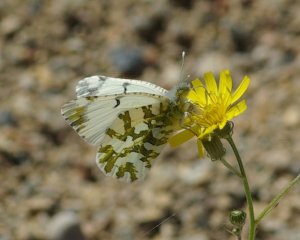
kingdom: Animalia
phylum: Arthropoda
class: Insecta
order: Lepidoptera
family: Pieridae
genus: Euchloe
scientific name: Euchloe ausonides
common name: Large Marble
